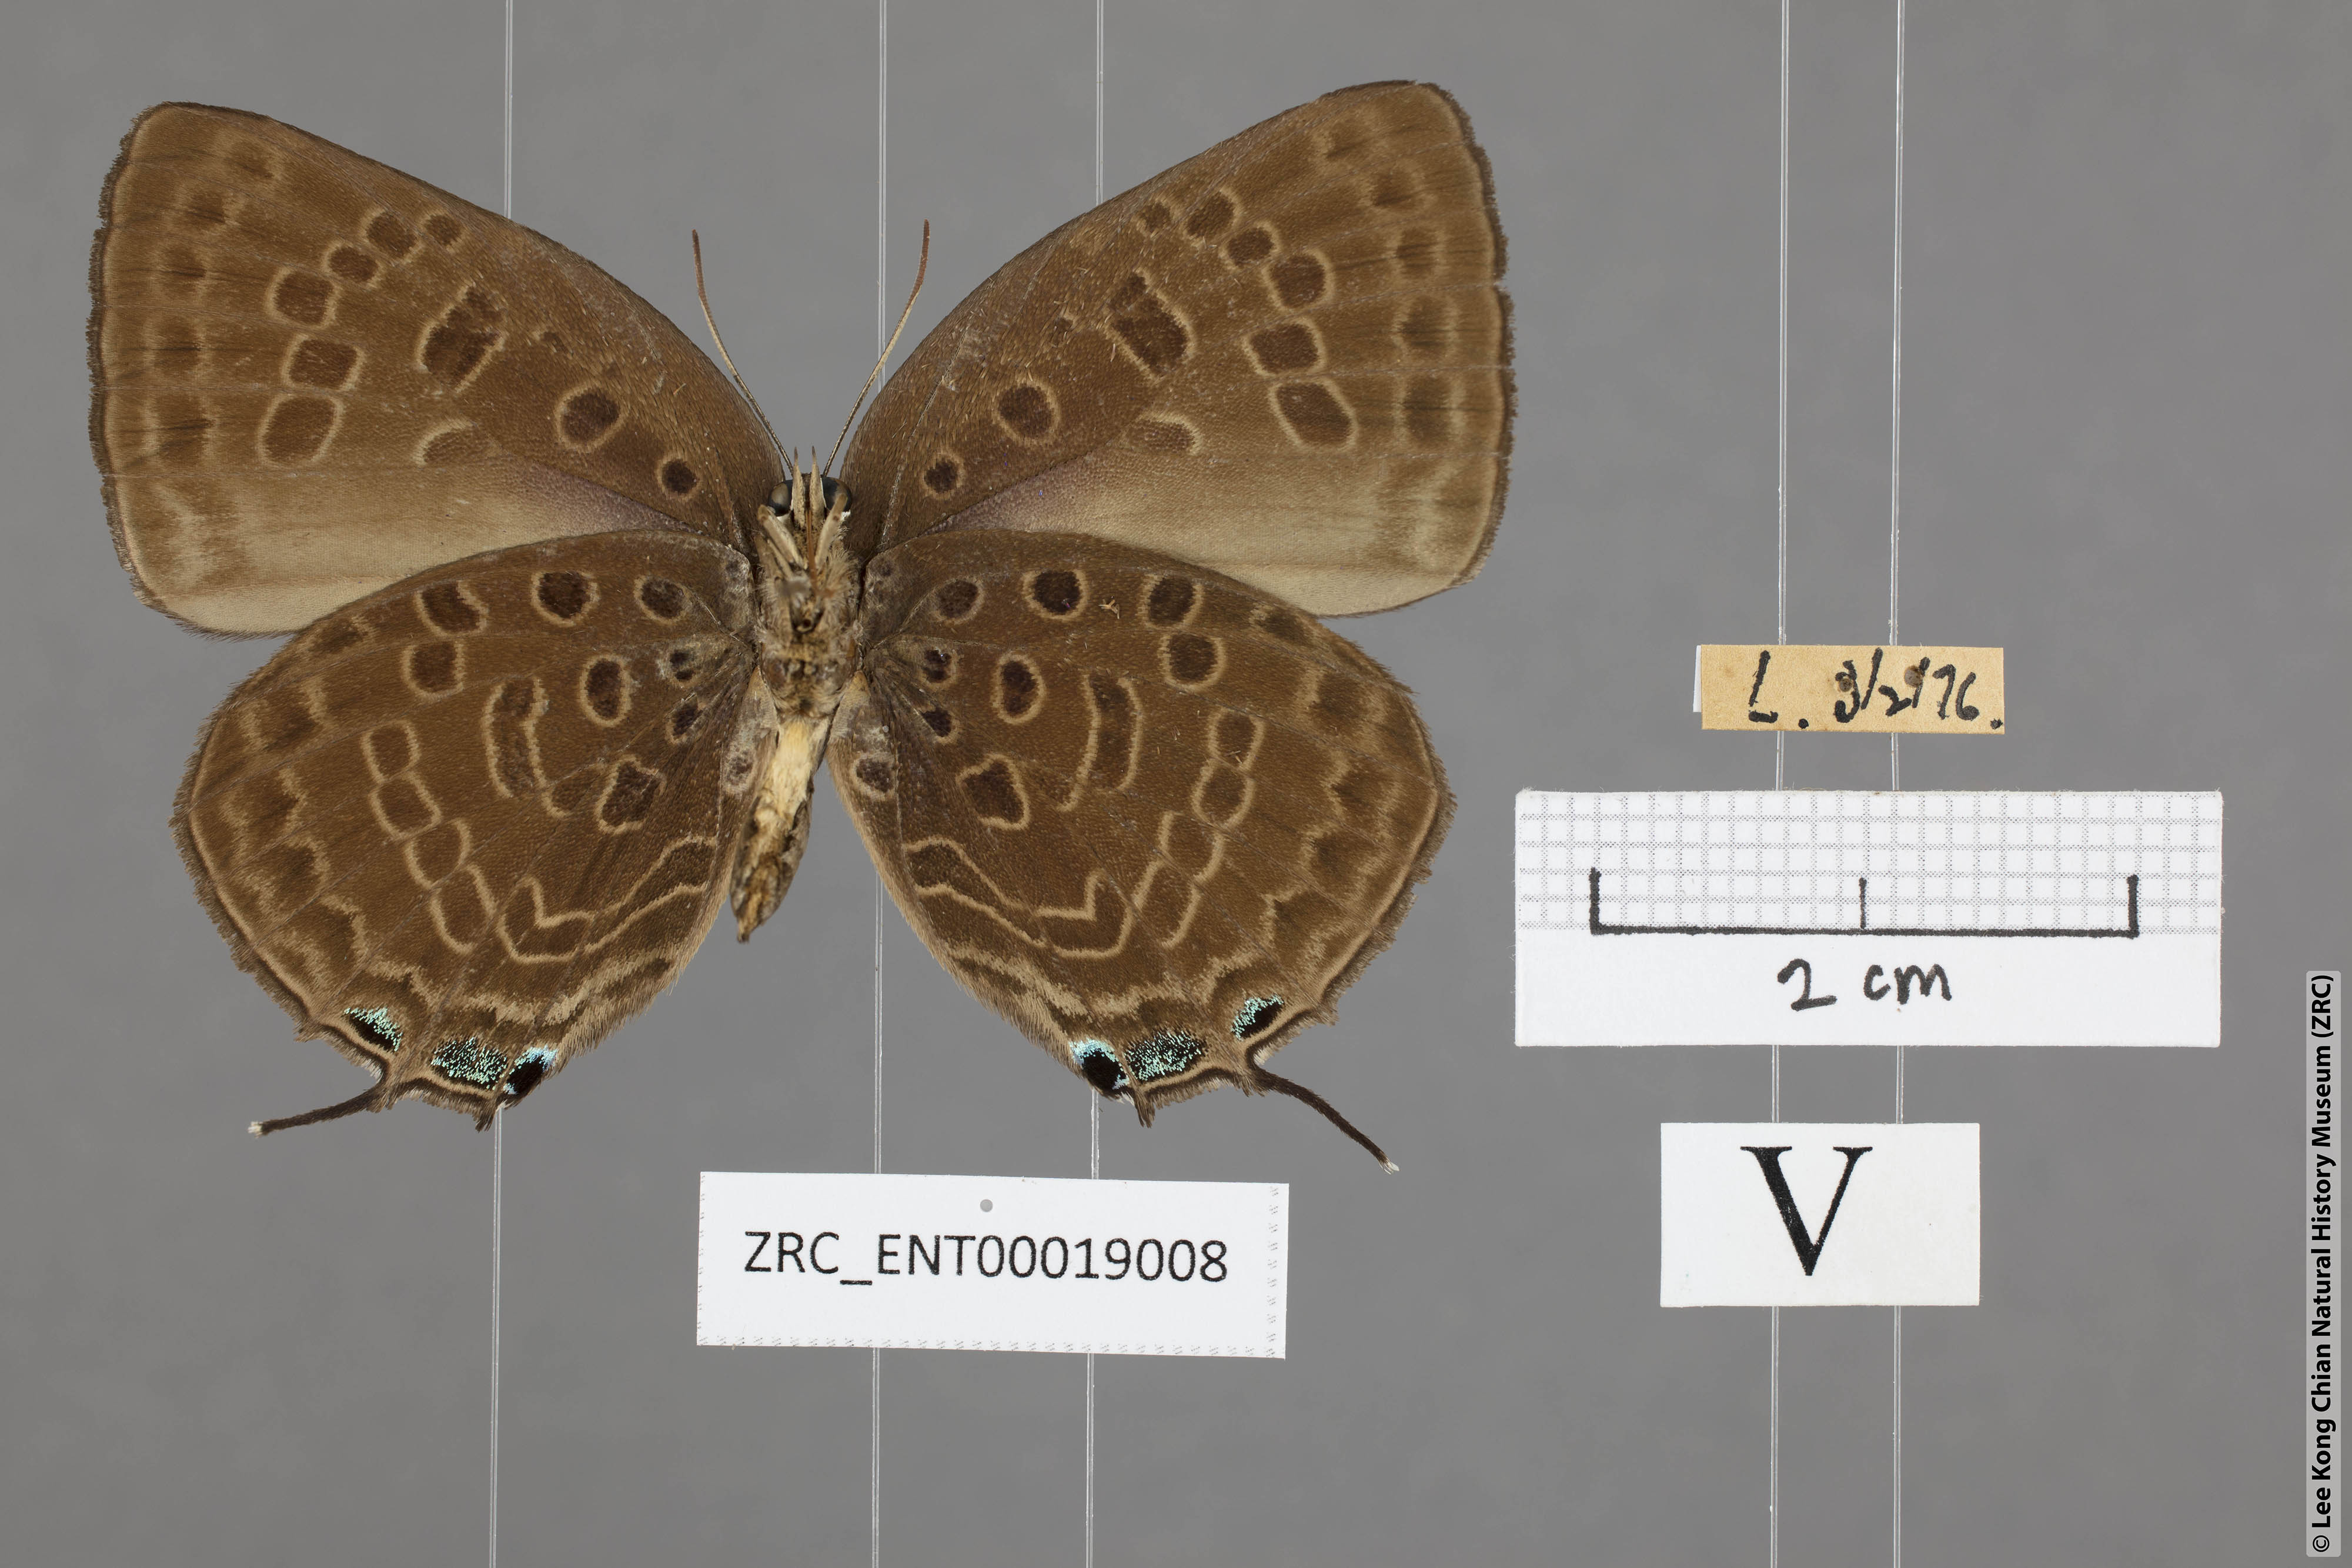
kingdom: Animalia
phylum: Arthropoda
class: Insecta
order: Lepidoptera
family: Lycaenidae
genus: Arhopala
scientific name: Arhopala aedias
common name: Large metallic oakblue
